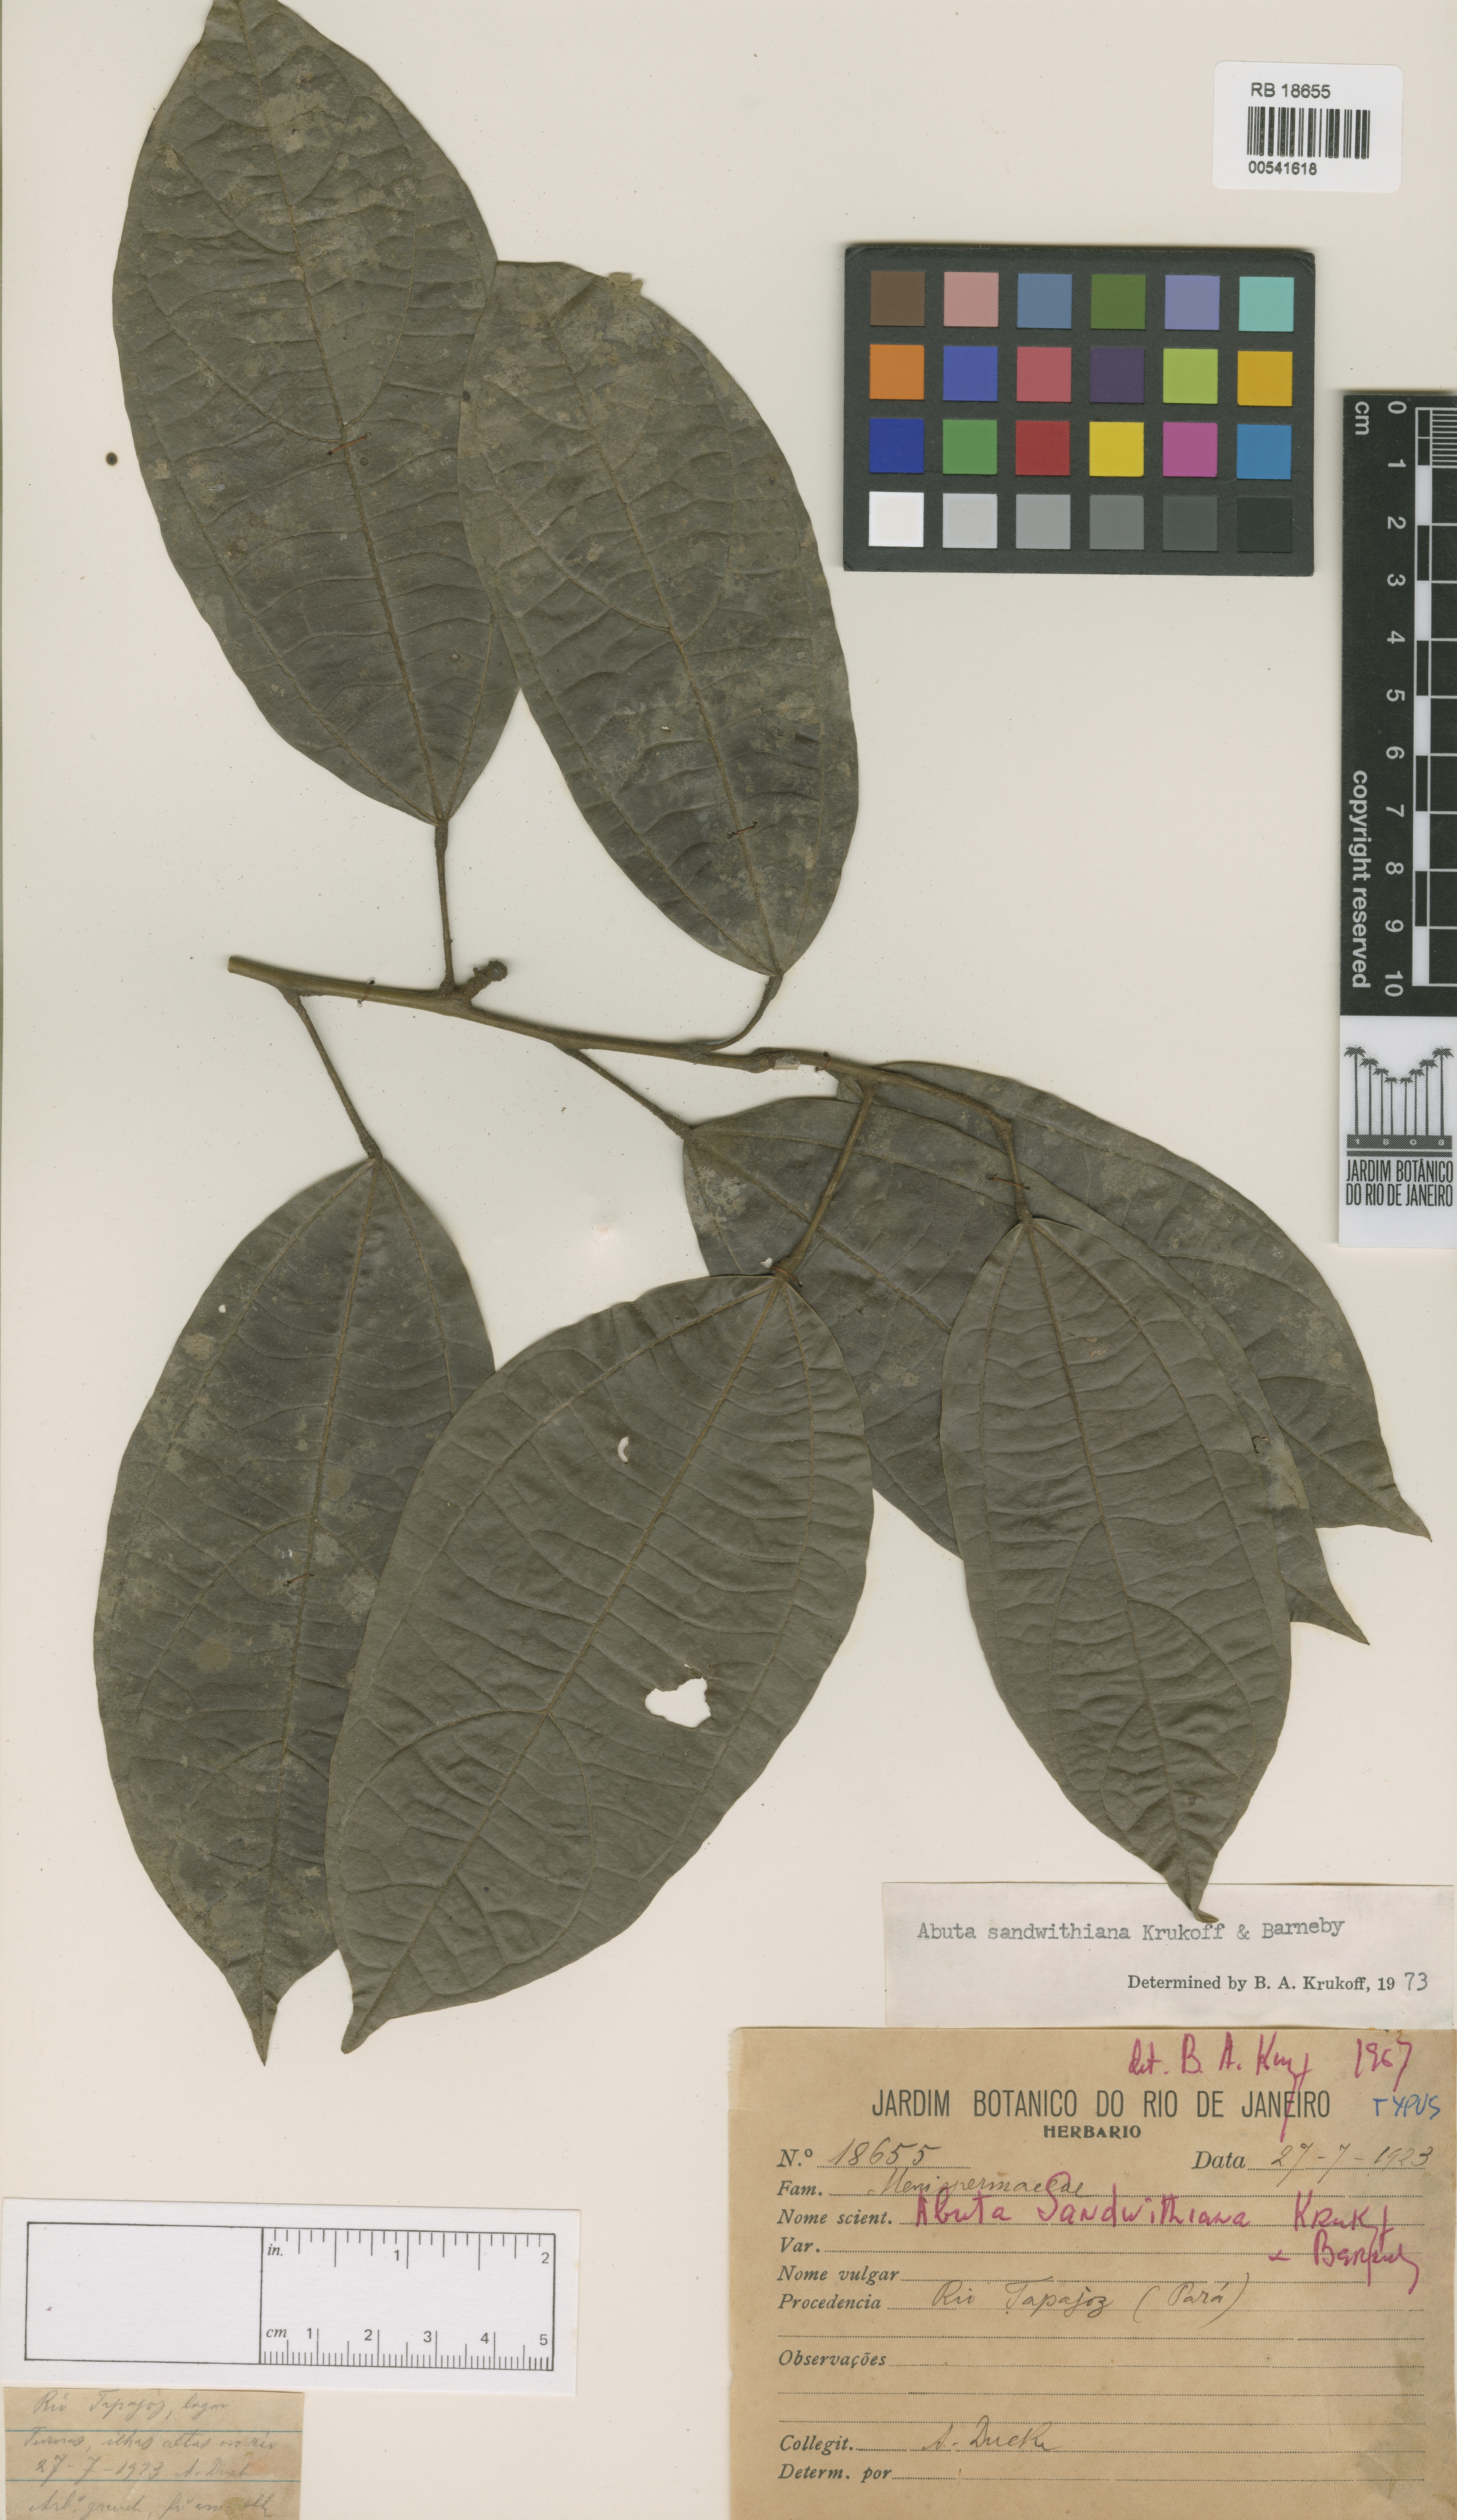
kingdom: Plantae
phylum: Tracheophyta
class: Magnoliopsida
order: Ranunculales
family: Menispermaceae
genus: Abuta
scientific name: Abuta sandwithiana
